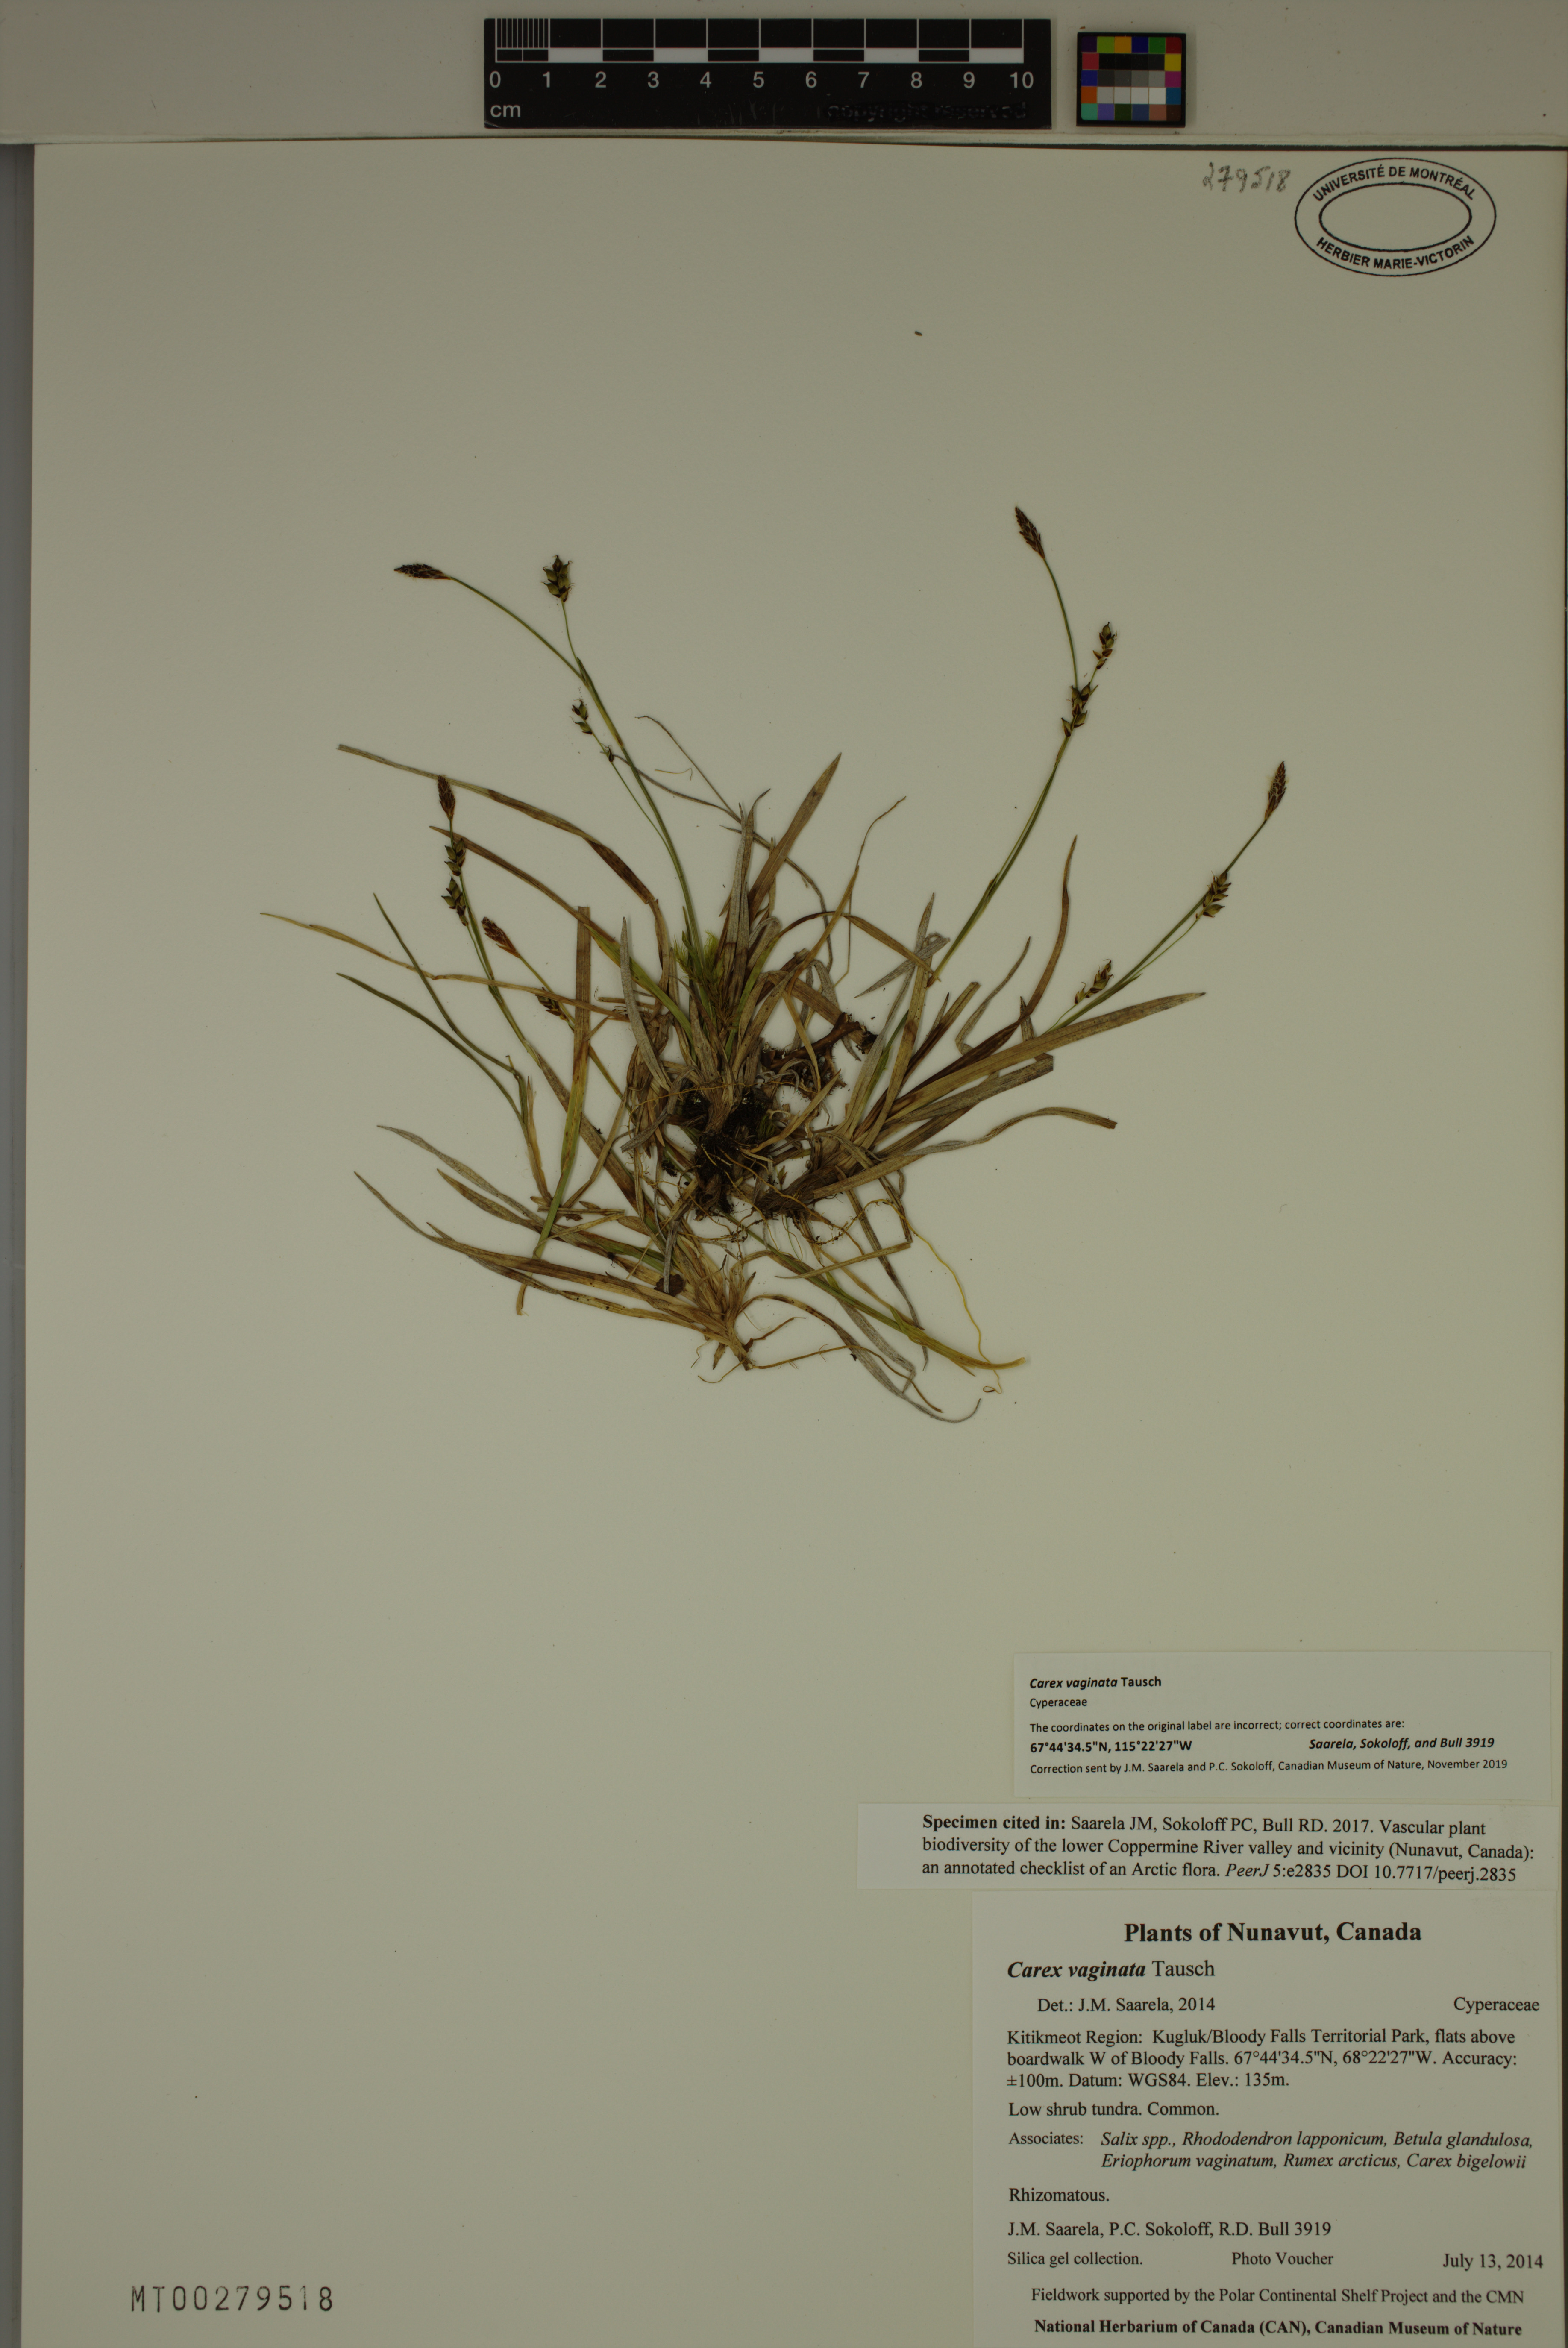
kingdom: Plantae
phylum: Tracheophyta
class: Liliopsida
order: Poales
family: Cyperaceae
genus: Carex
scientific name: Carex vaginata
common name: Sheathed sedge
